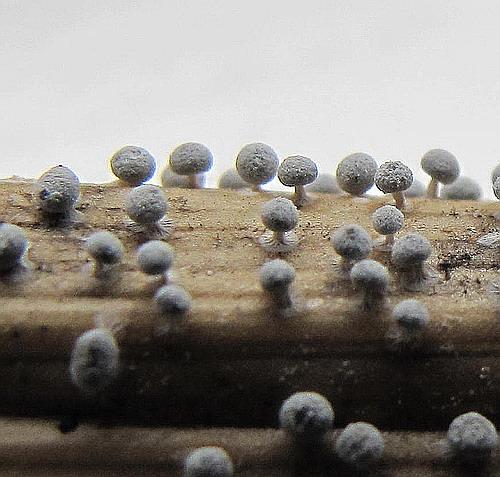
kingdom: Protozoa
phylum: Mycetozoa
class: Myxomycetes
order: Physarales
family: Didymiaceae
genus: Didymium
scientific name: Didymium squamulosum
